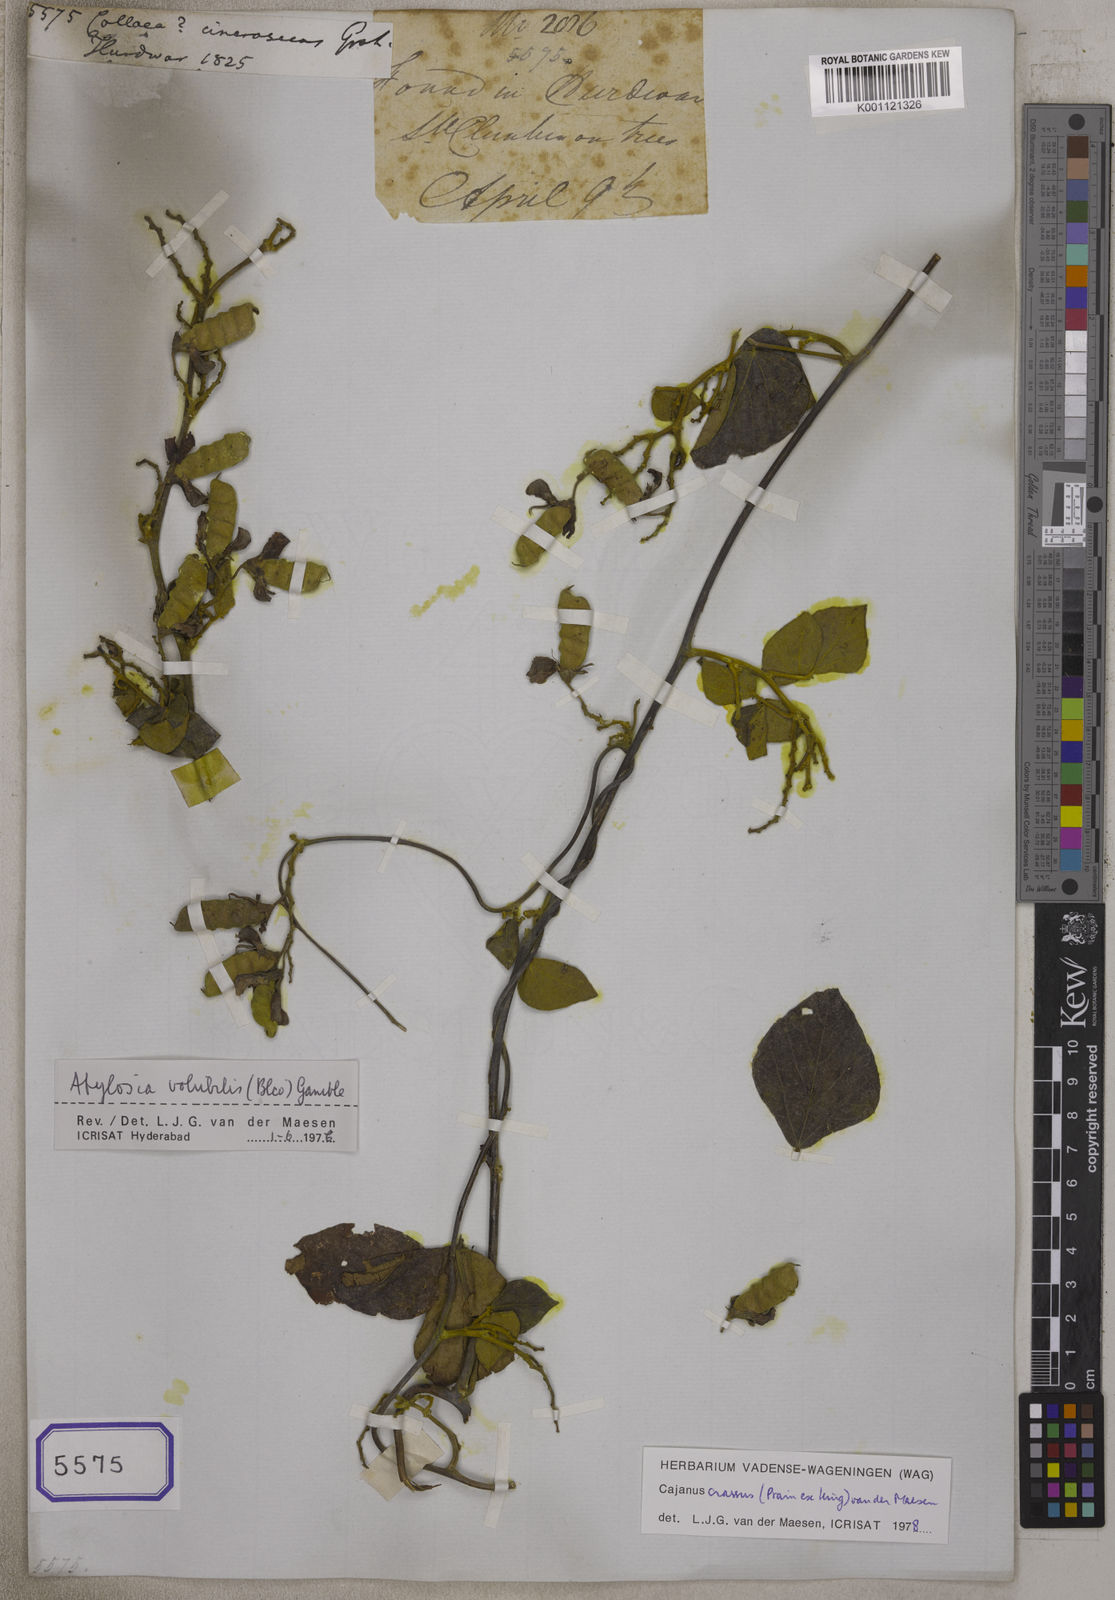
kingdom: Plantae
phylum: Tracheophyta
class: Magnoliopsida
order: Fabales
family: Fabaceae
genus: Cajanus
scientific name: Cajanus mollis
